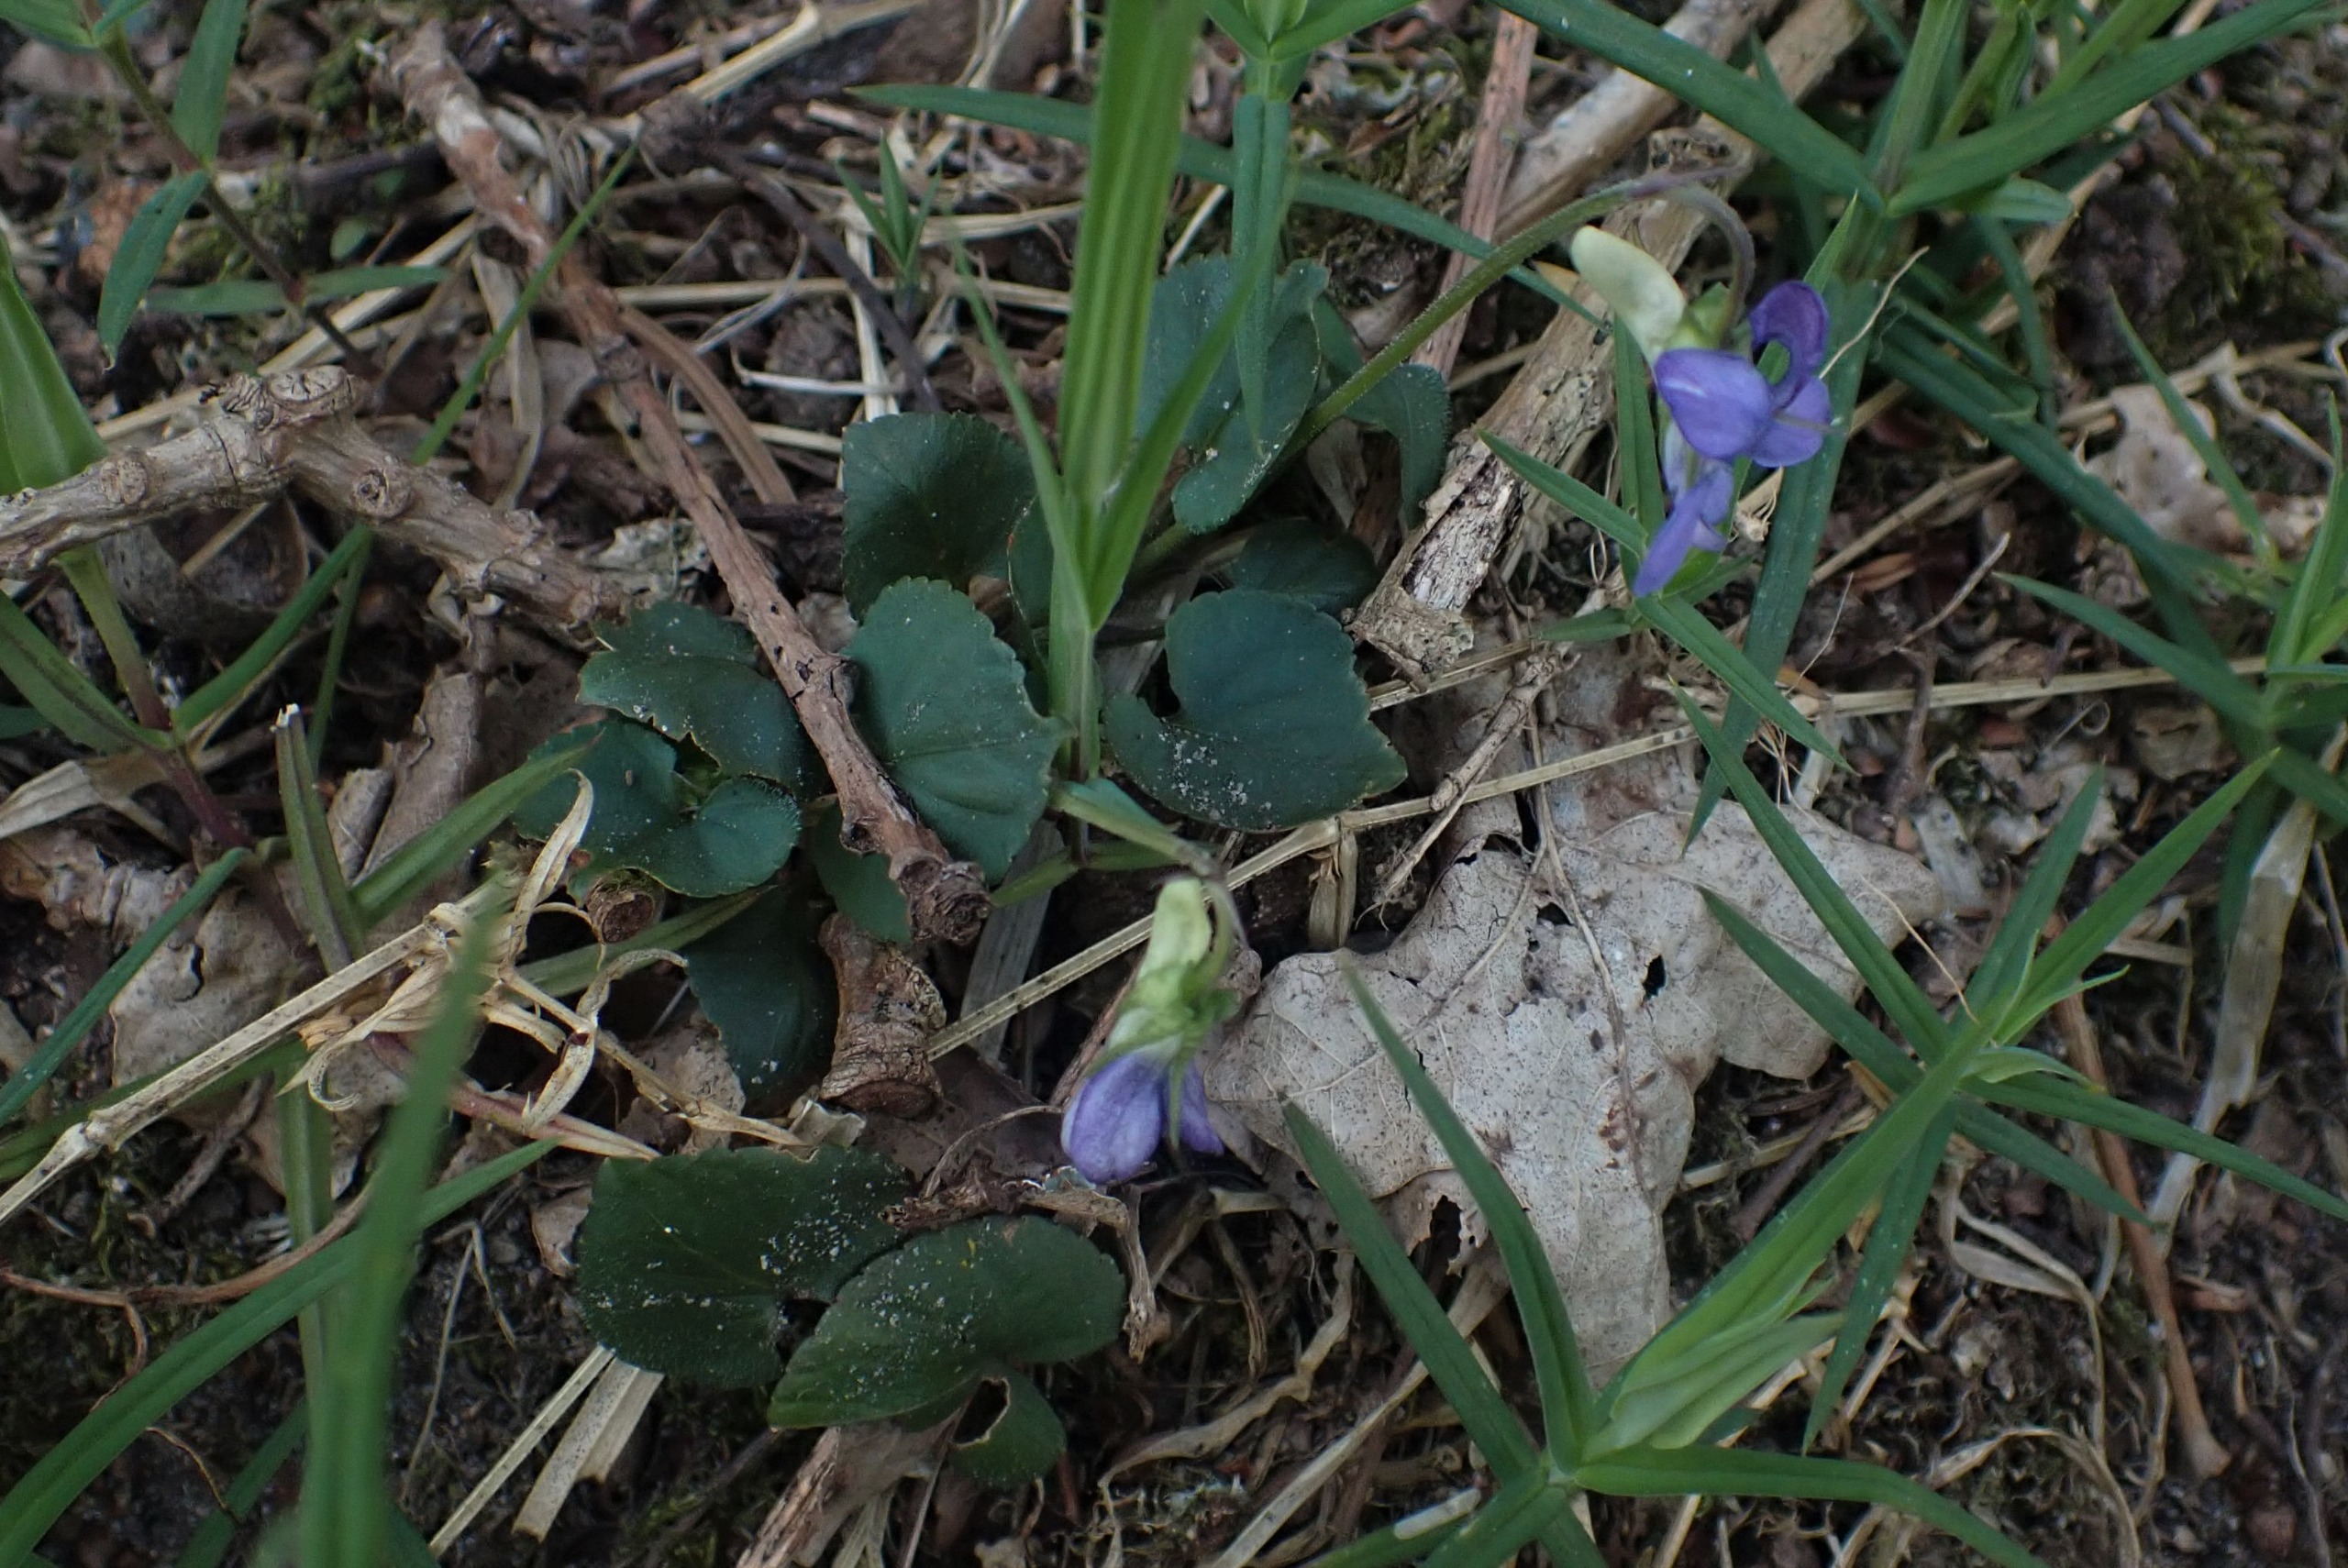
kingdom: Plantae
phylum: Tracheophyta
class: Magnoliopsida
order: Malpighiales
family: Violaceae
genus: Viola
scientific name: Viola riviniana
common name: Krat-viol
